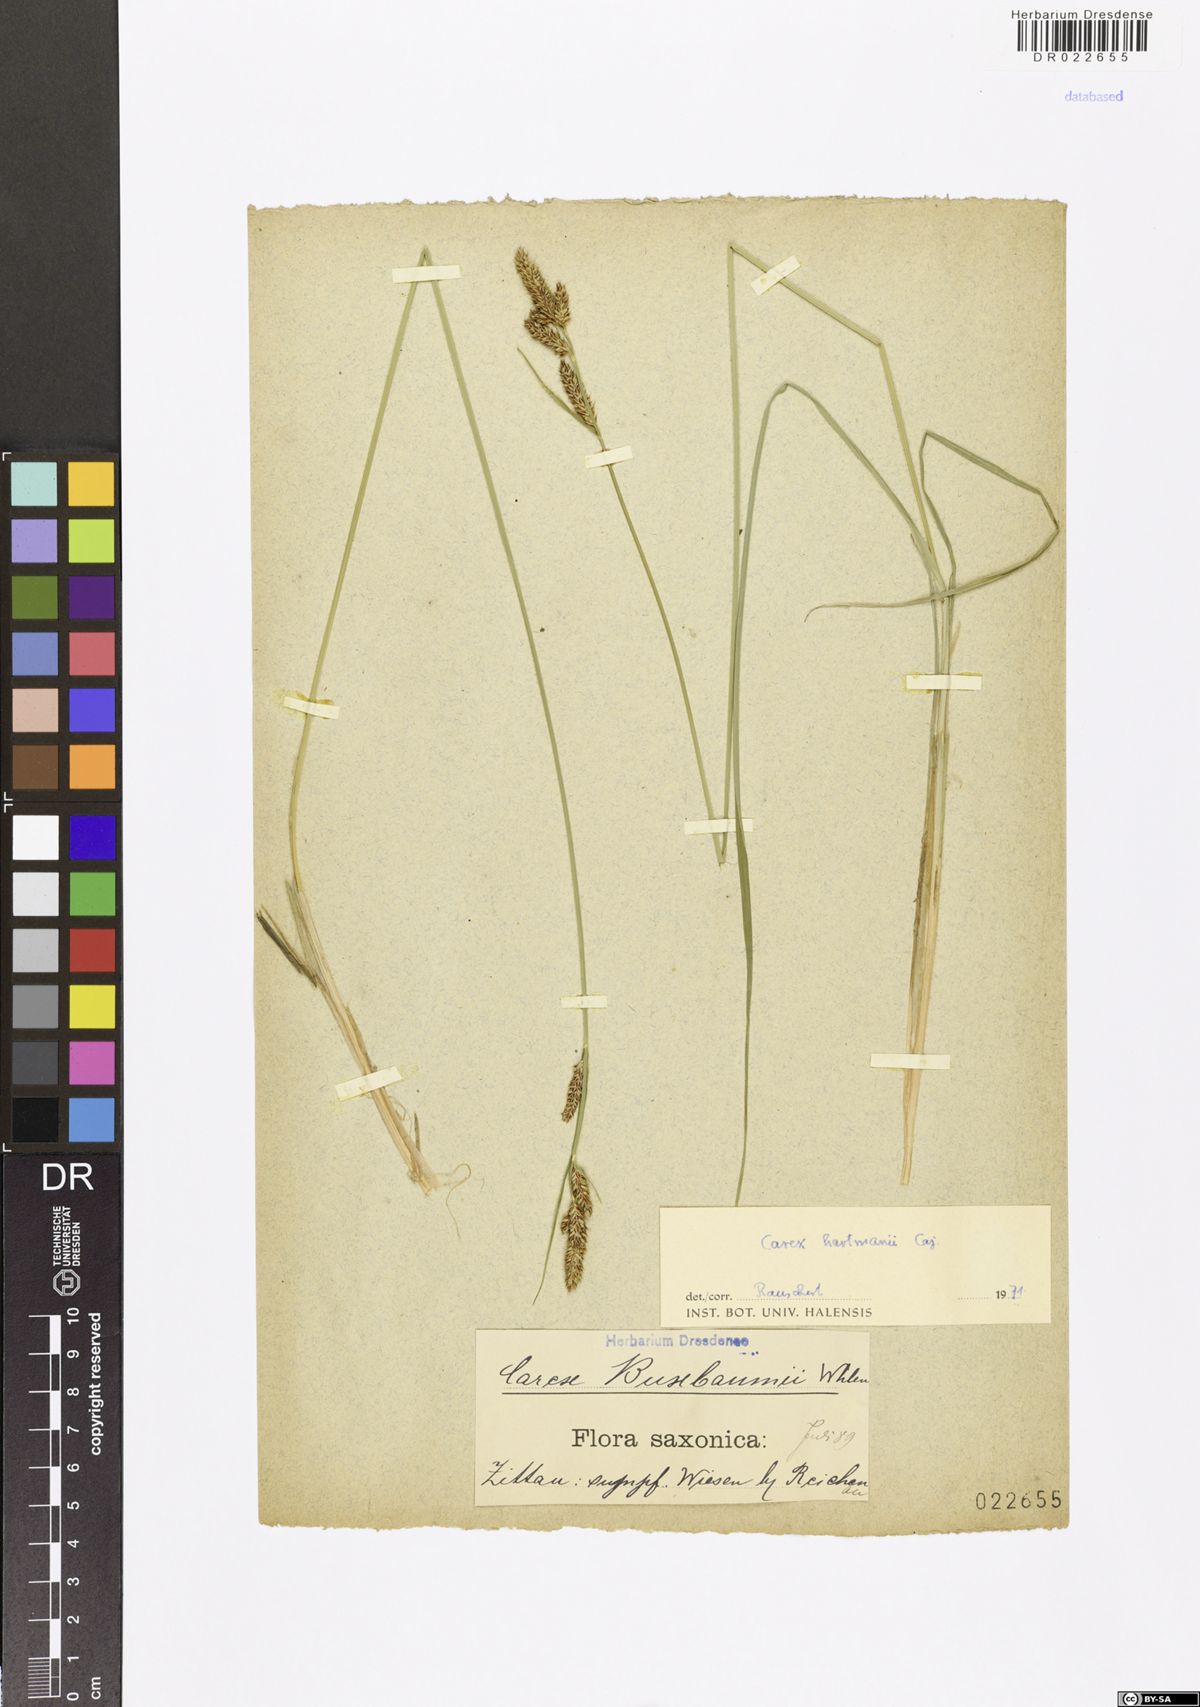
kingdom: Plantae
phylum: Tracheophyta
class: Liliopsida
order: Poales
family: Cyperaceae
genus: Carex
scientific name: Carex hartmaniorum
